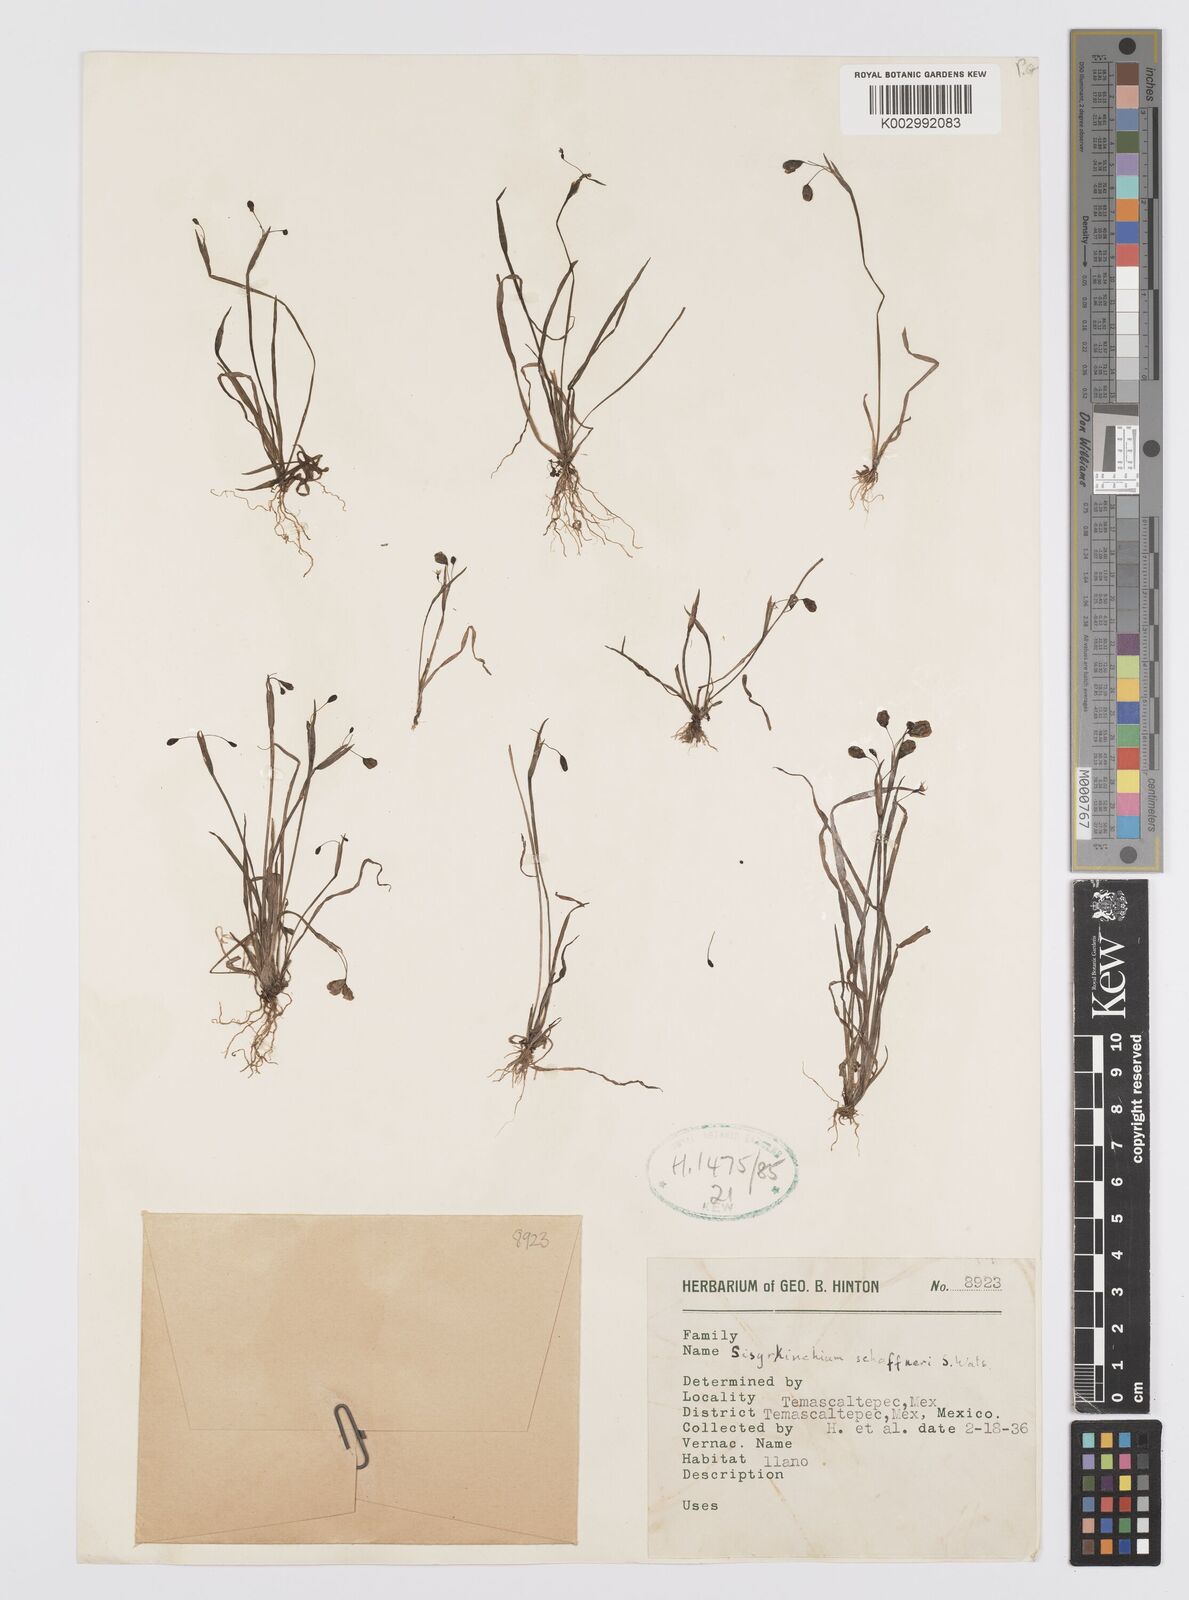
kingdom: Plantae
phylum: Tracheophyta
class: Liliopsida
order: Asparagales
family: Iridaceae
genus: Sisyrinchium
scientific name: Sisyrinchium schaffneri
